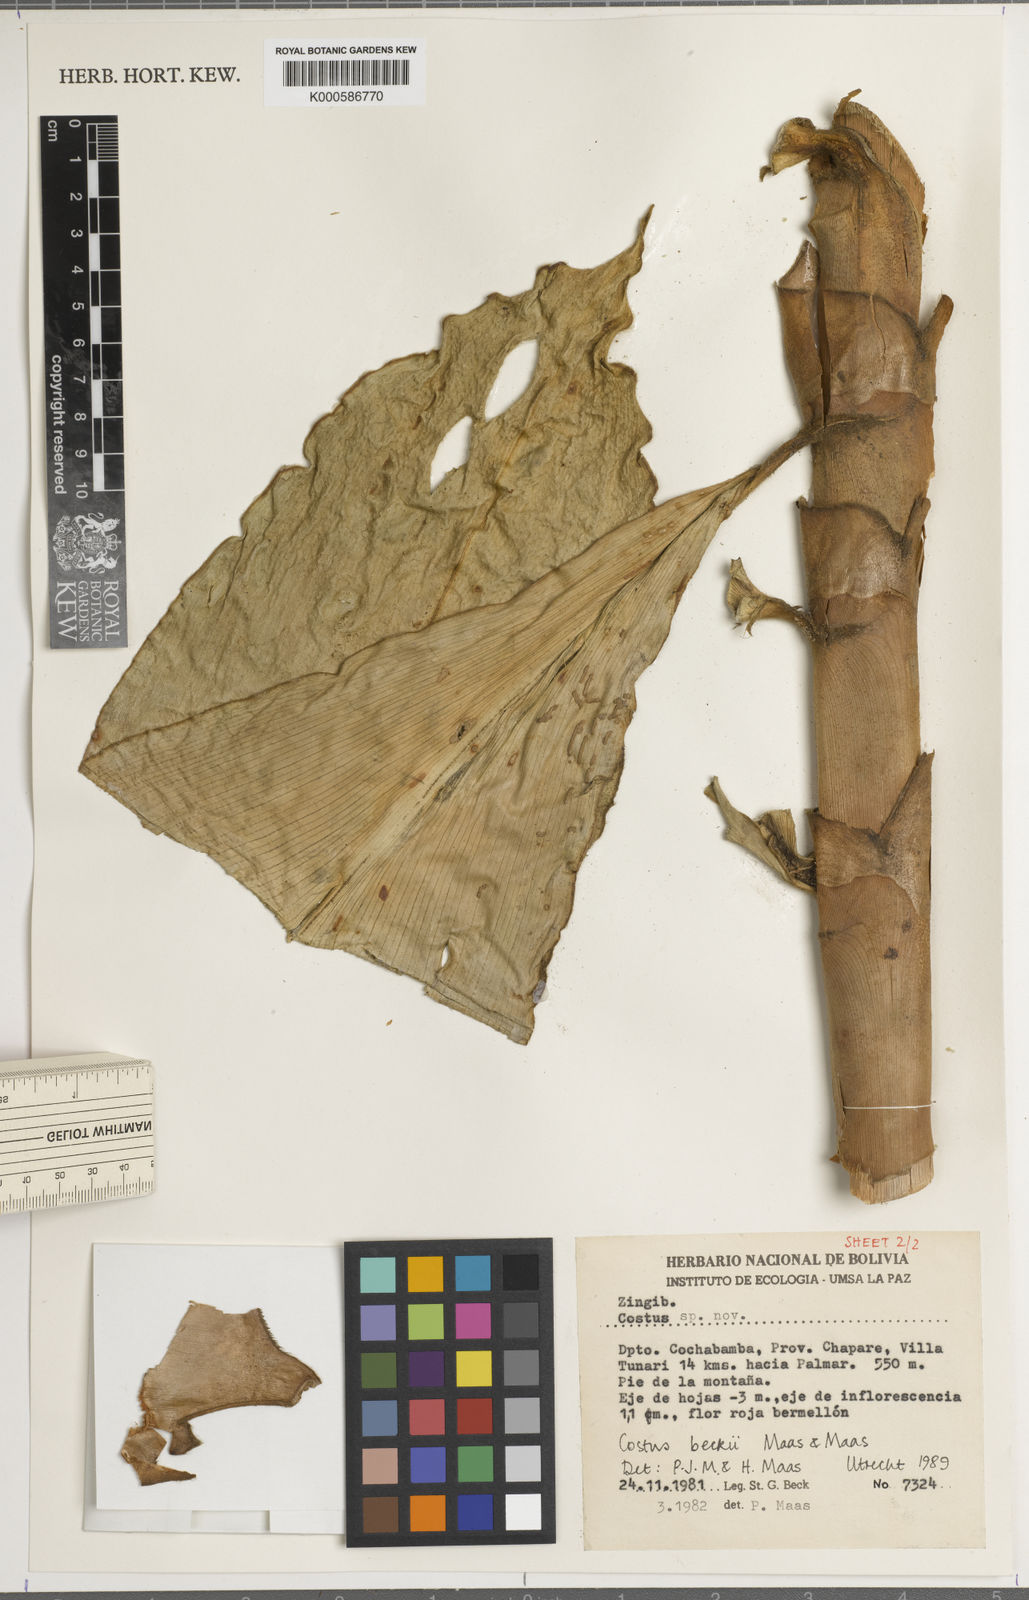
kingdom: Plantae
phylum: Tracheophyta
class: Liliopsida
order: Zingiberales
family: Costaceae
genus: Costus
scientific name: Costus beckii
